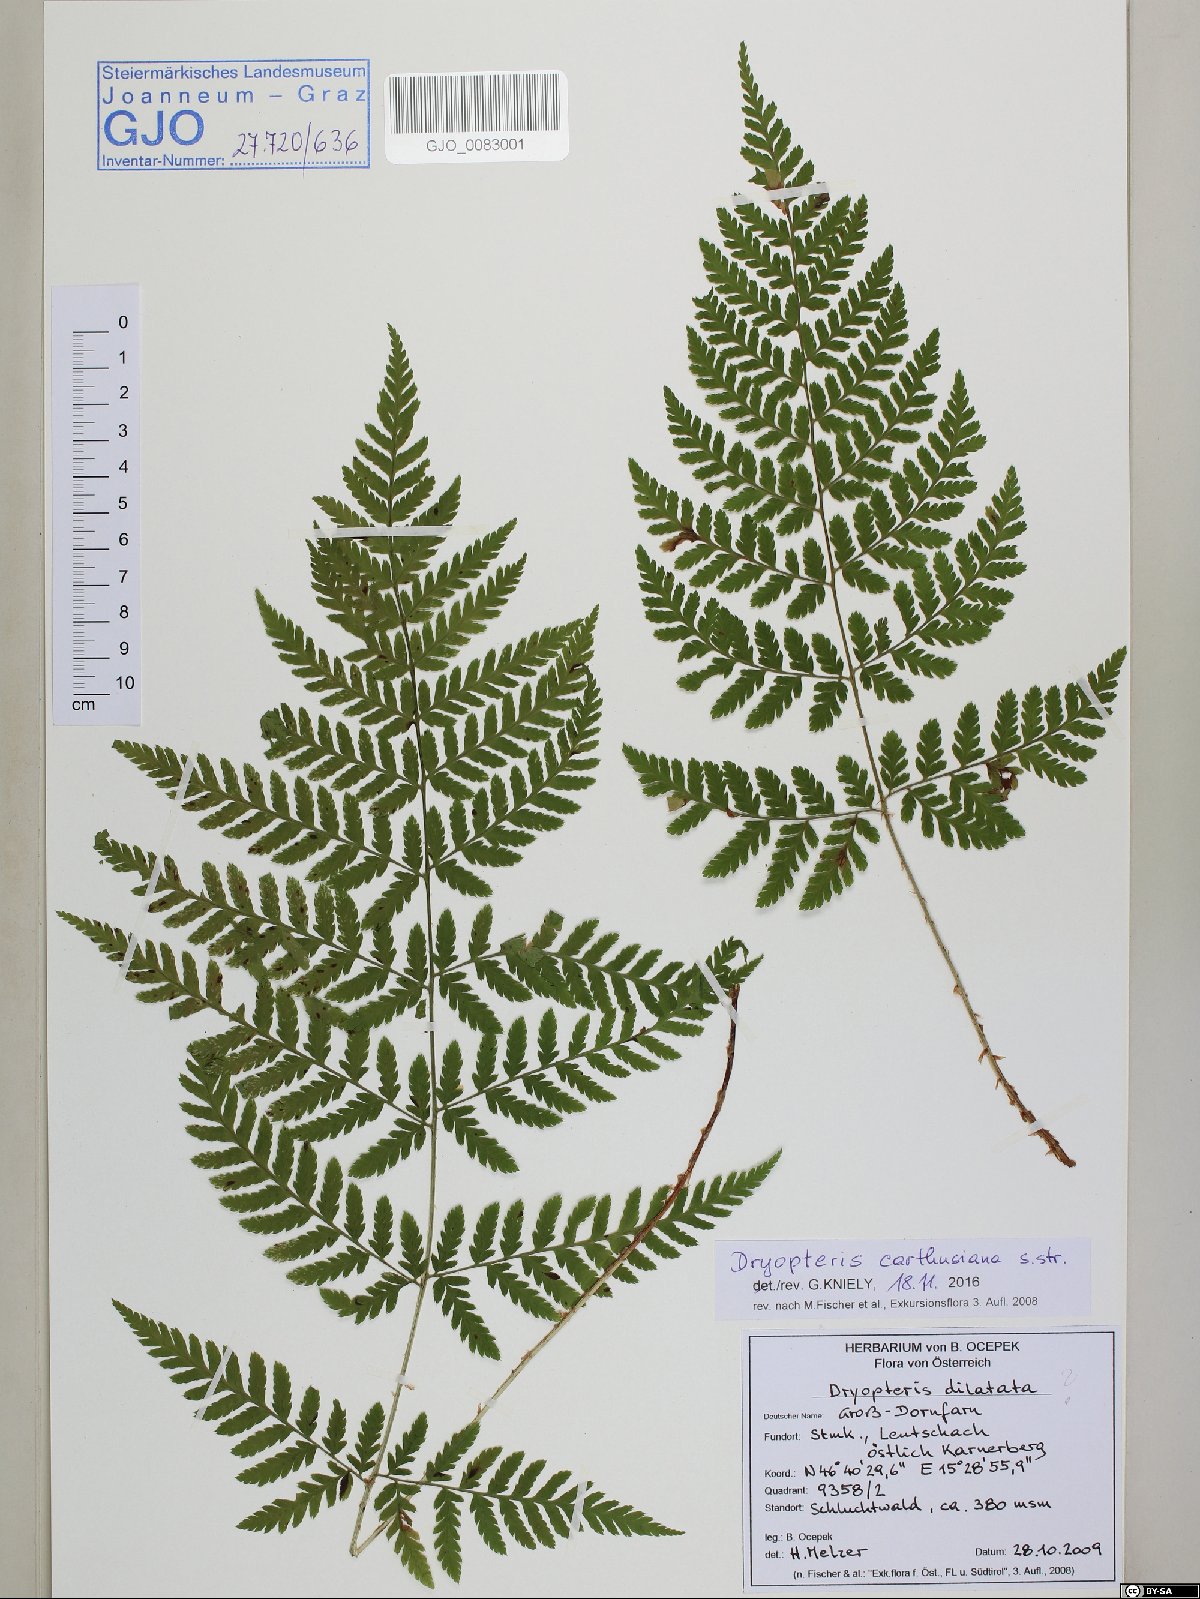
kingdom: Plantae
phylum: Tracheophyta
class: Polypodiopsida
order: Polypodiales
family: Dryopteridaceae
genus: Dryopteris
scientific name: Dryopteris carthusiana
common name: Narrow buckler-fern
